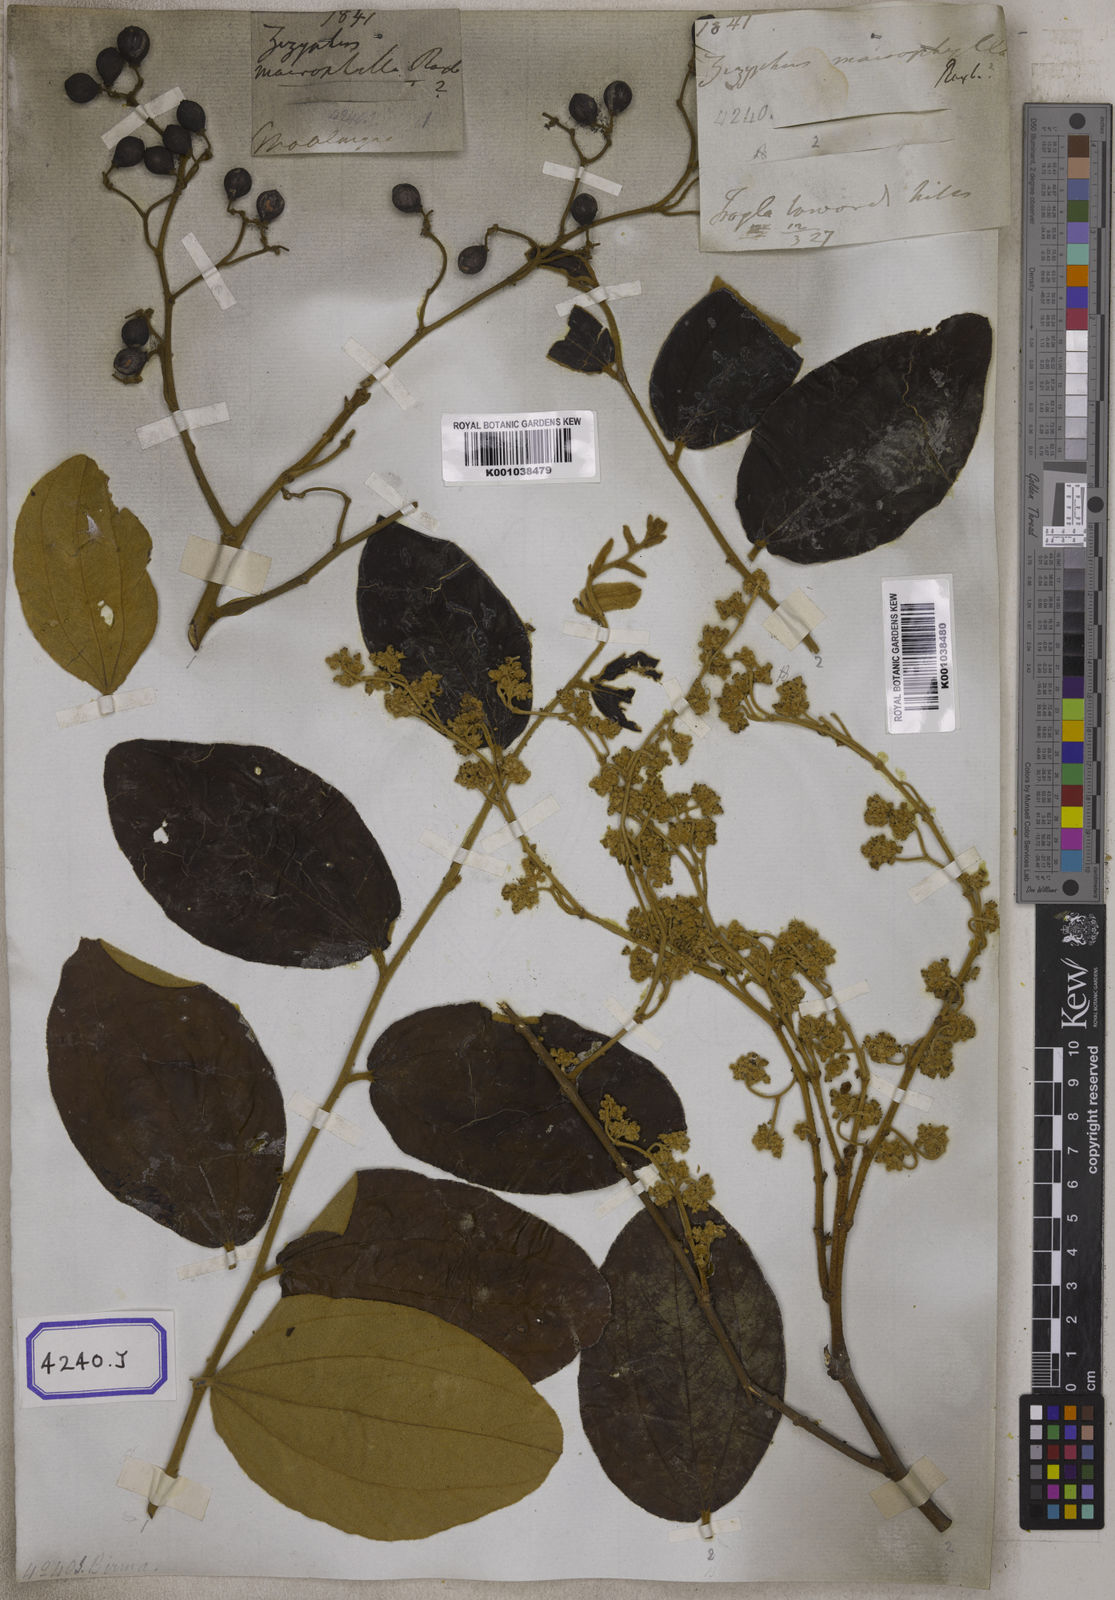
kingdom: Plantae
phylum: Tracheophyta
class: Magnoliopsida
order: Rosales
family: Rhamnaceae
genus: Ziziphus
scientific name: Ziziphus rugosa
